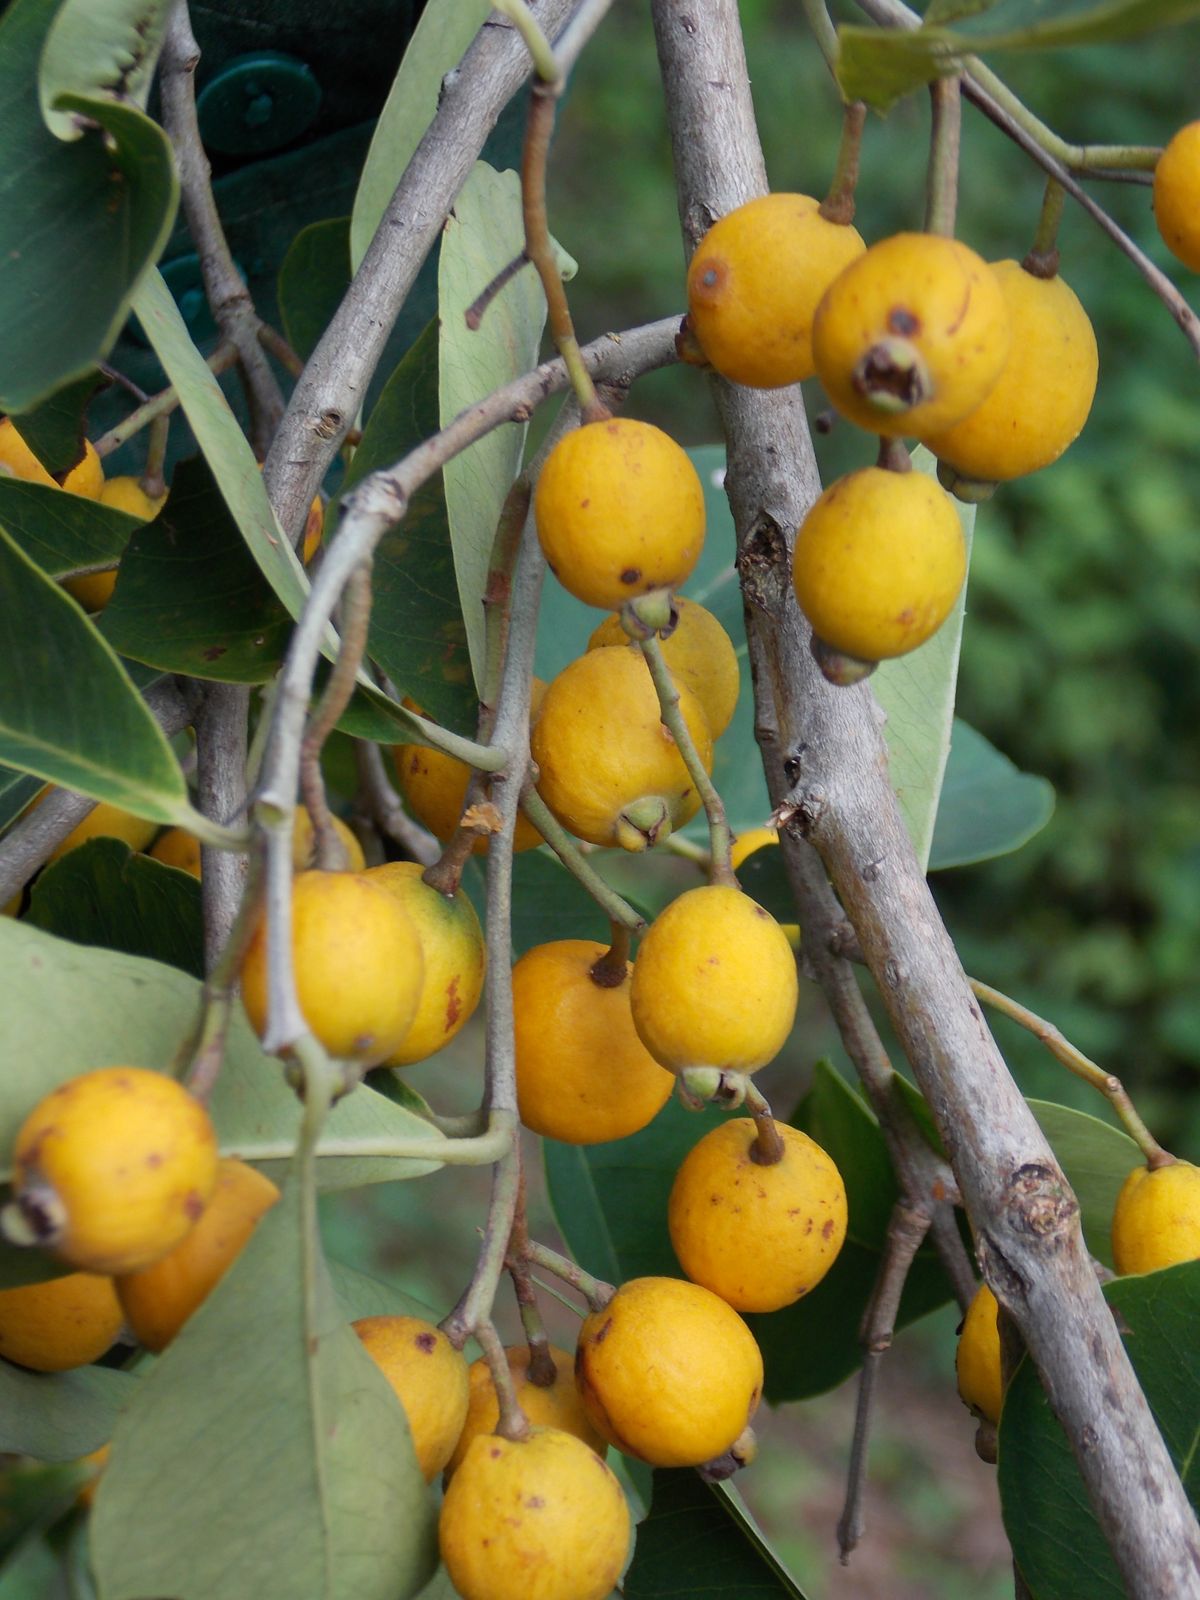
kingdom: Plantae
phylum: Tracheophyta
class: Magnoliopsida
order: Myrtales
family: Myrtaceae
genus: Eugenia
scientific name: Eugenia salamensis
